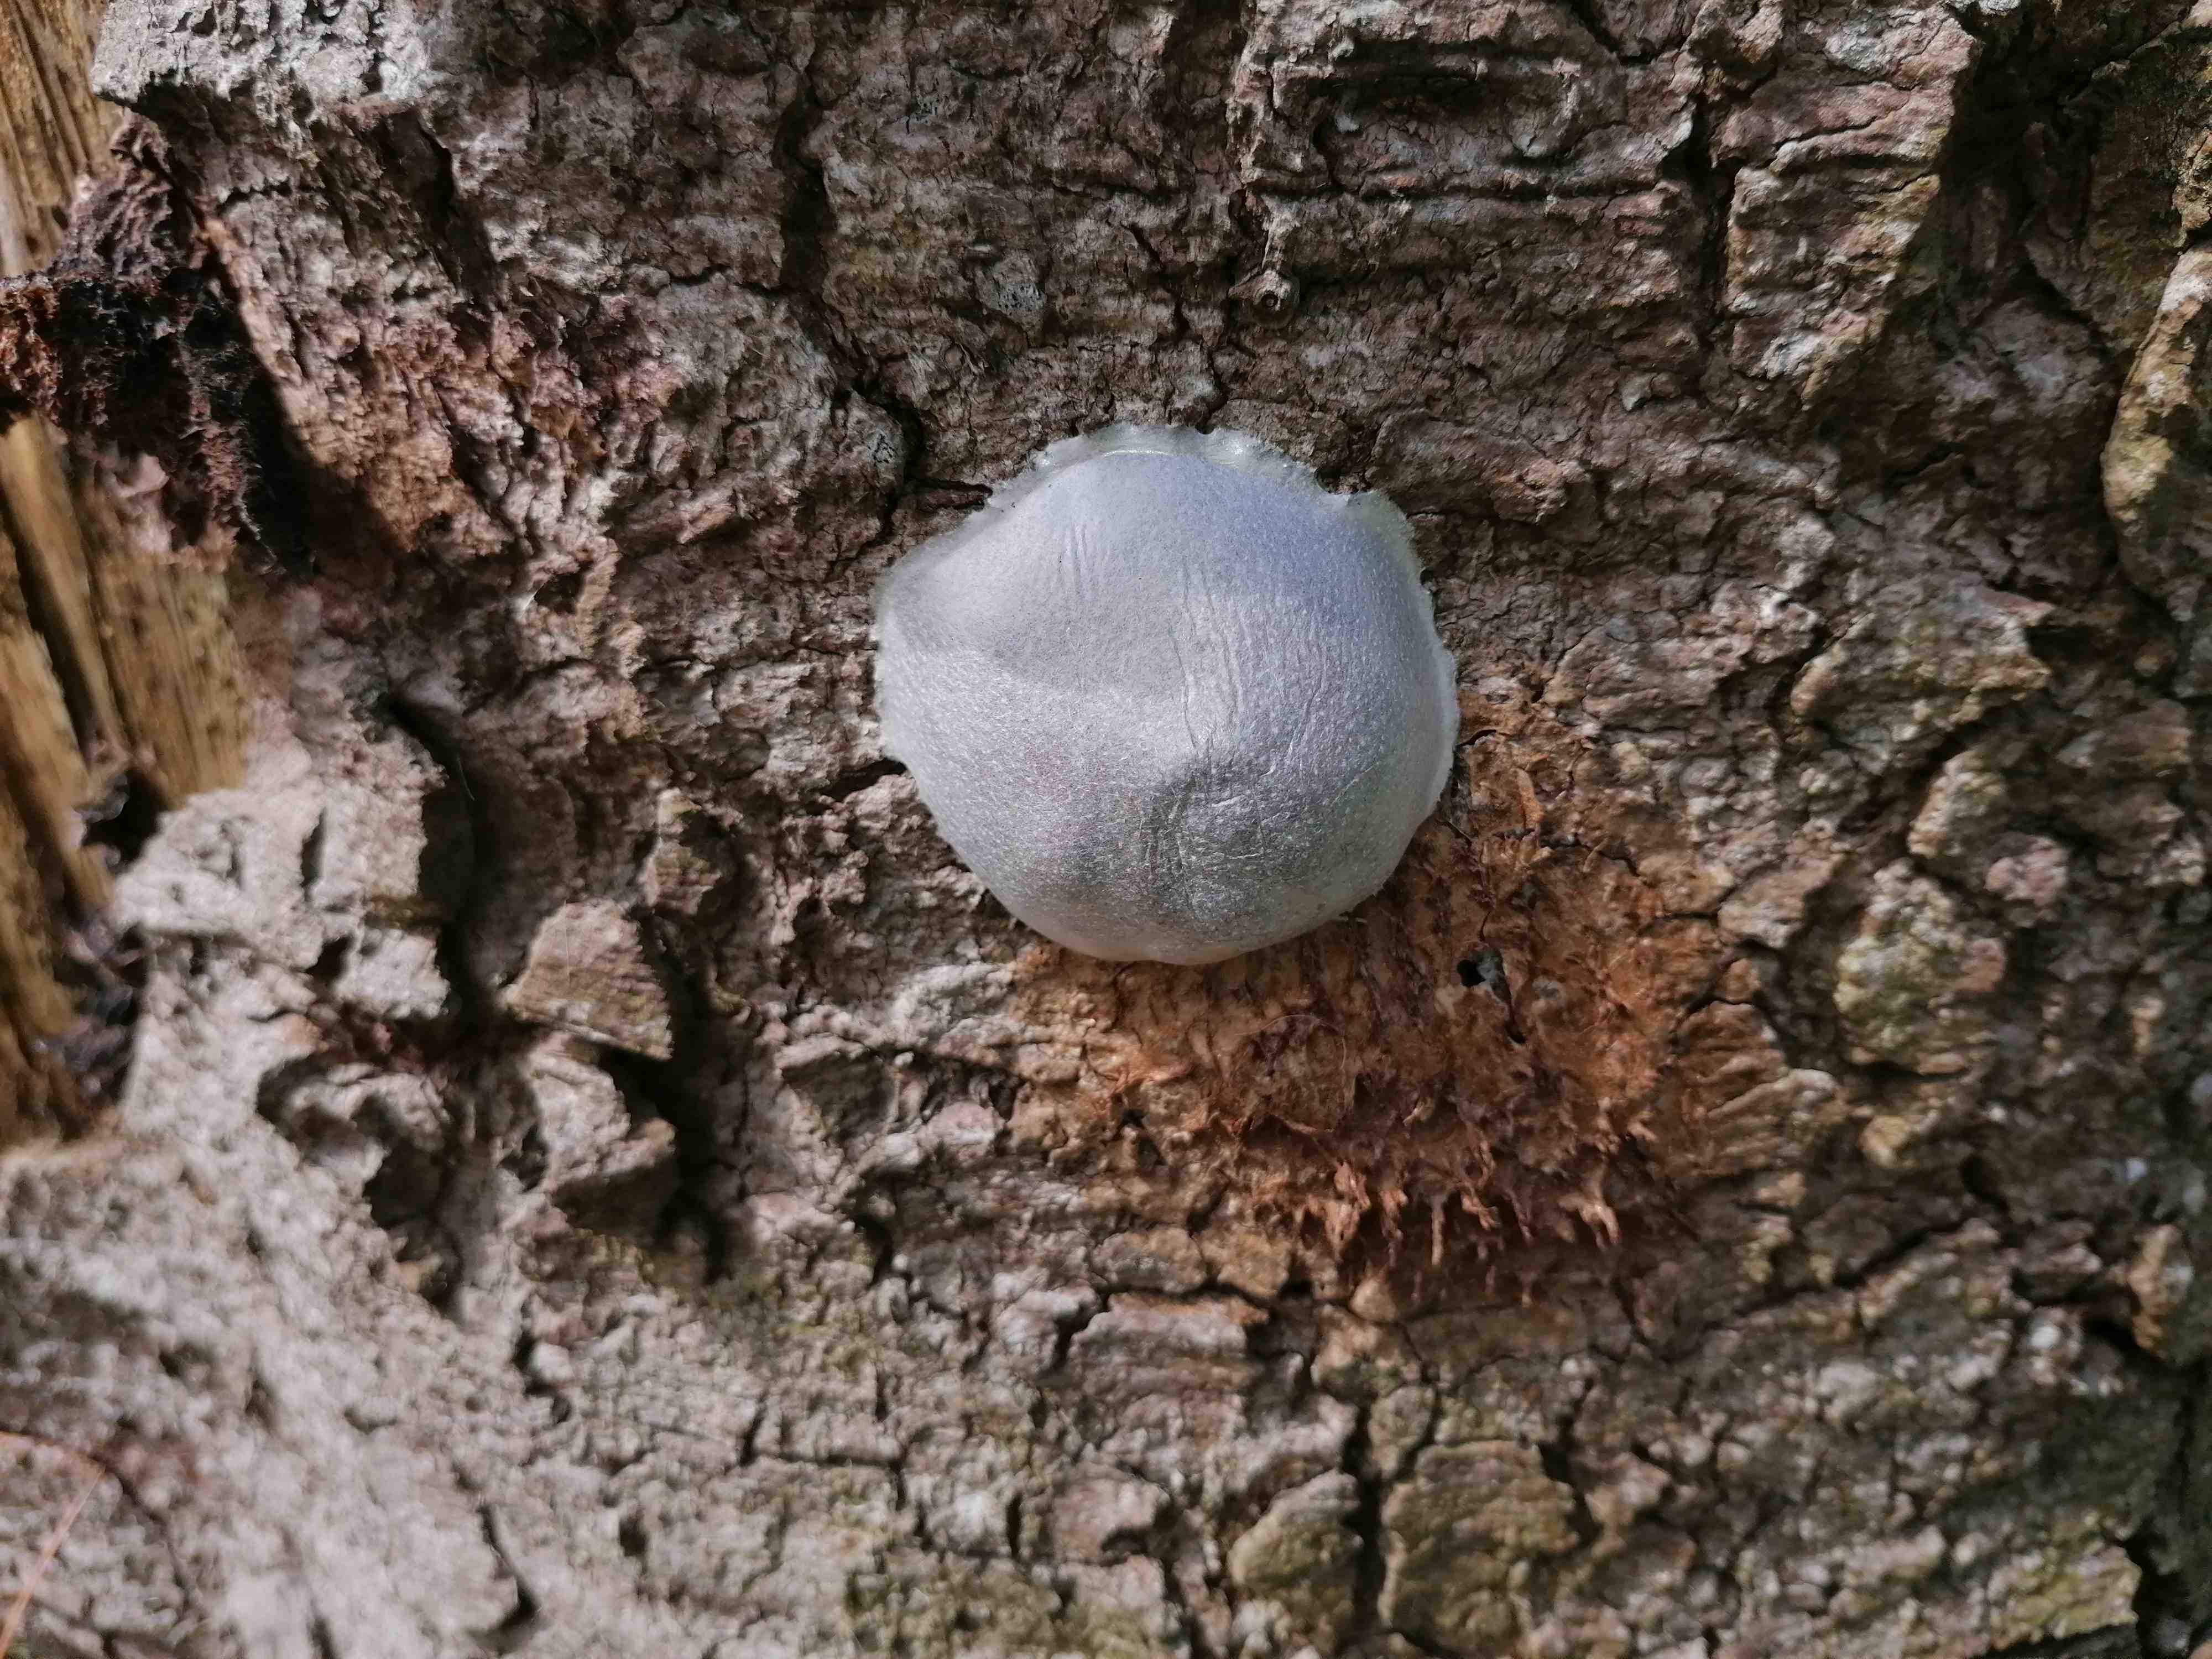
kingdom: Protozoa
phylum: Mycetozoa
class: Myxomycetes
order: Cribrariales
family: Tubiferaceae
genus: Reticularia
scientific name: Reticularia lycoperdon
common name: skinnende støvpude
